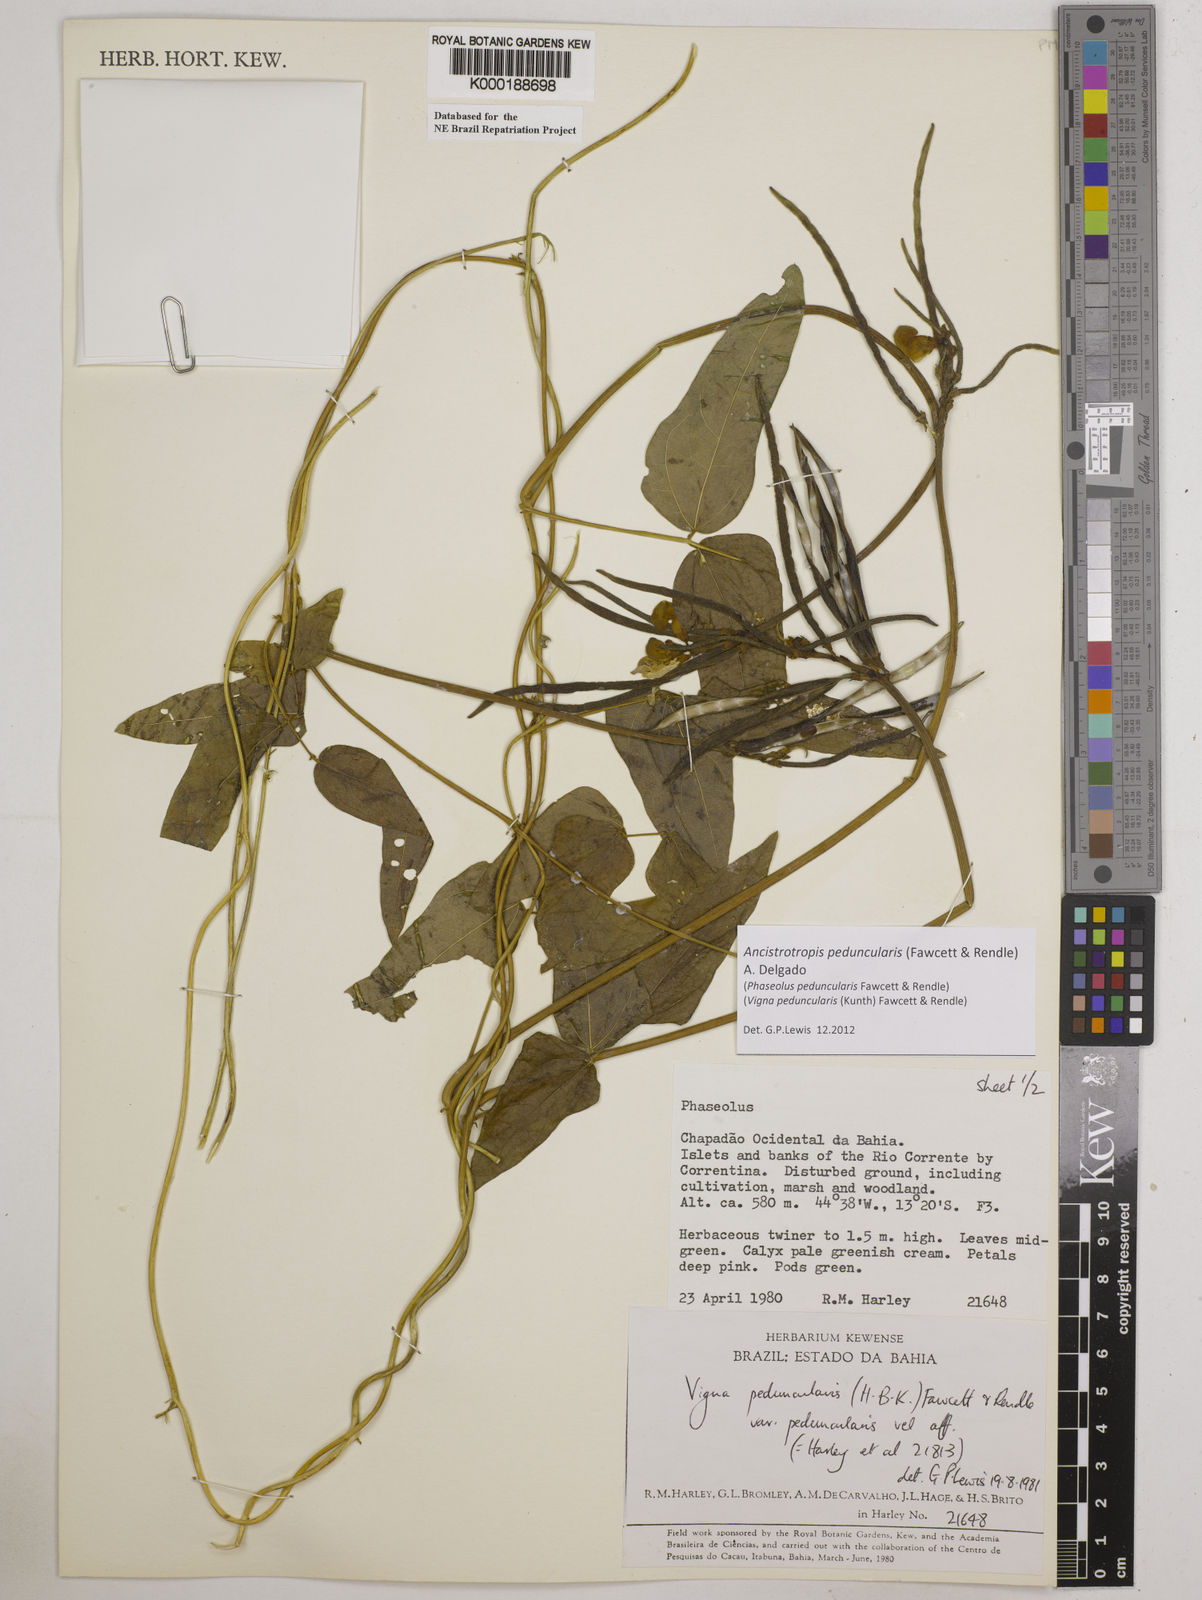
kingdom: Plantae
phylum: Tracheophyta
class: Magnoliopsida
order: Fabales
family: Fabaceae
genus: Ancistrotropis
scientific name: Ancistrotropis peduncularis
